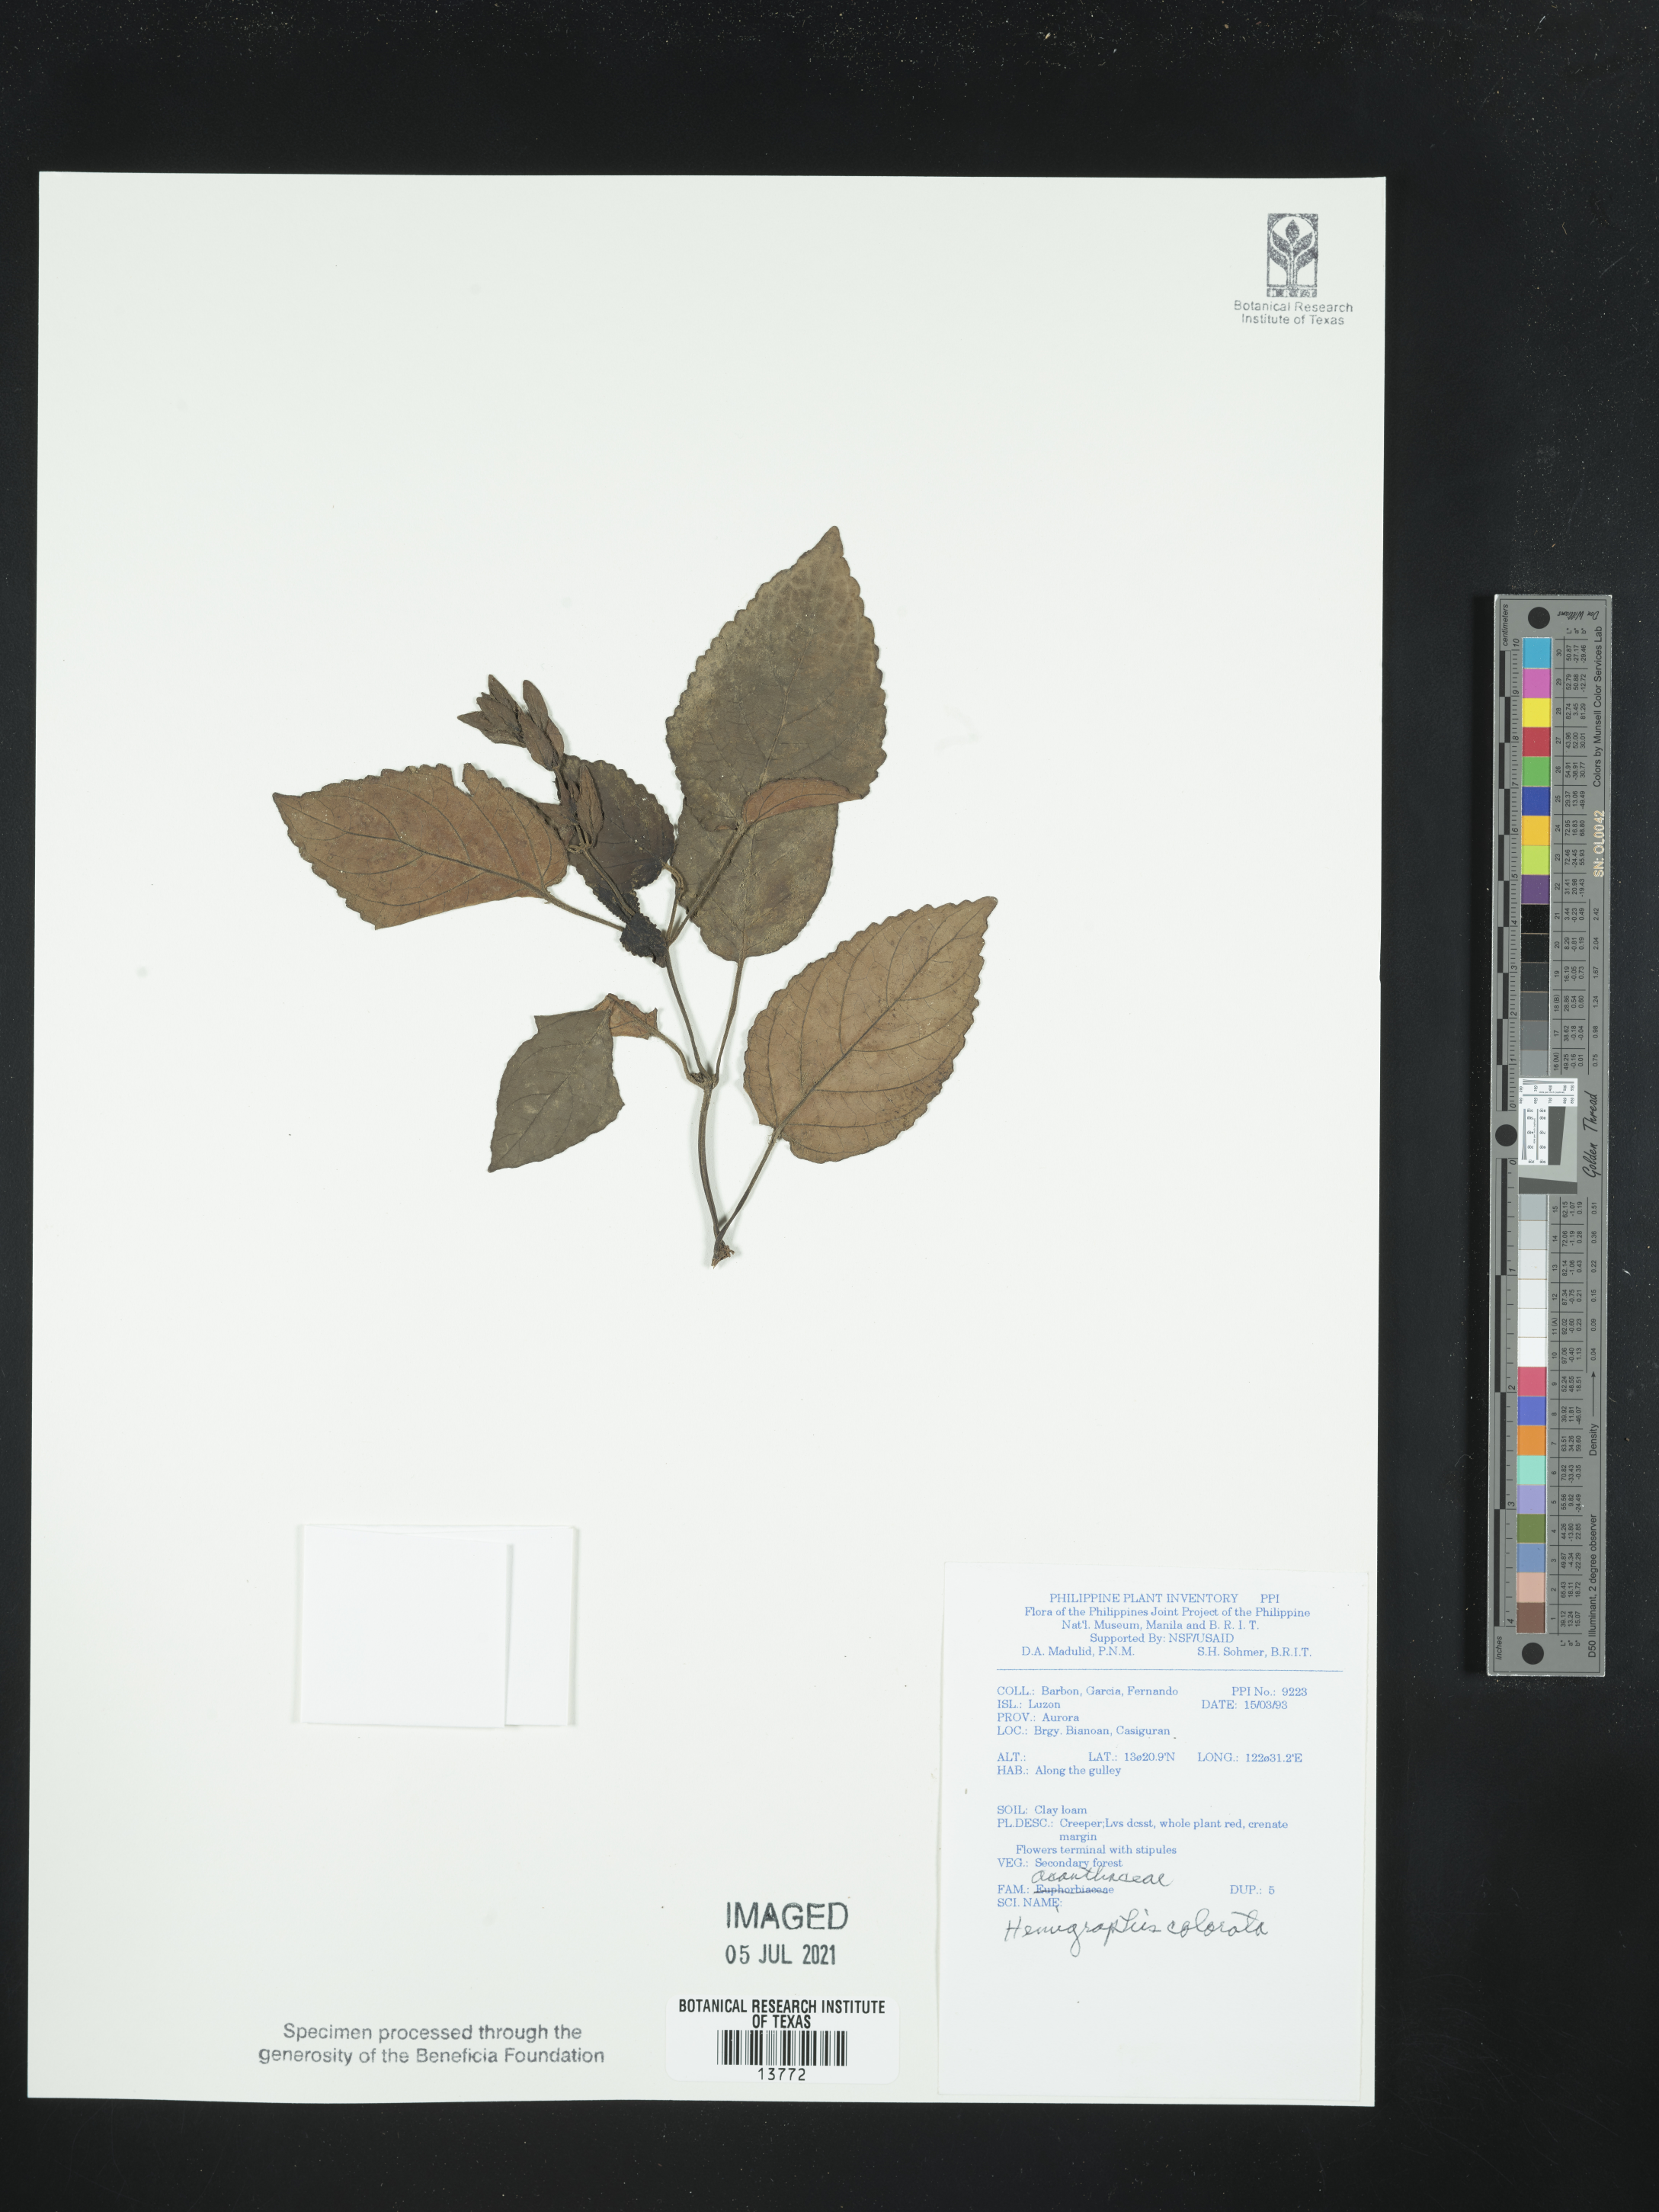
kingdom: Plantae
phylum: Tracheophyta
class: Magnoliopsida
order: Lamiales
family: Acanthaceae
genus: Strobilanthes
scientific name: Strobilanthes alternata
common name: Red ivy
